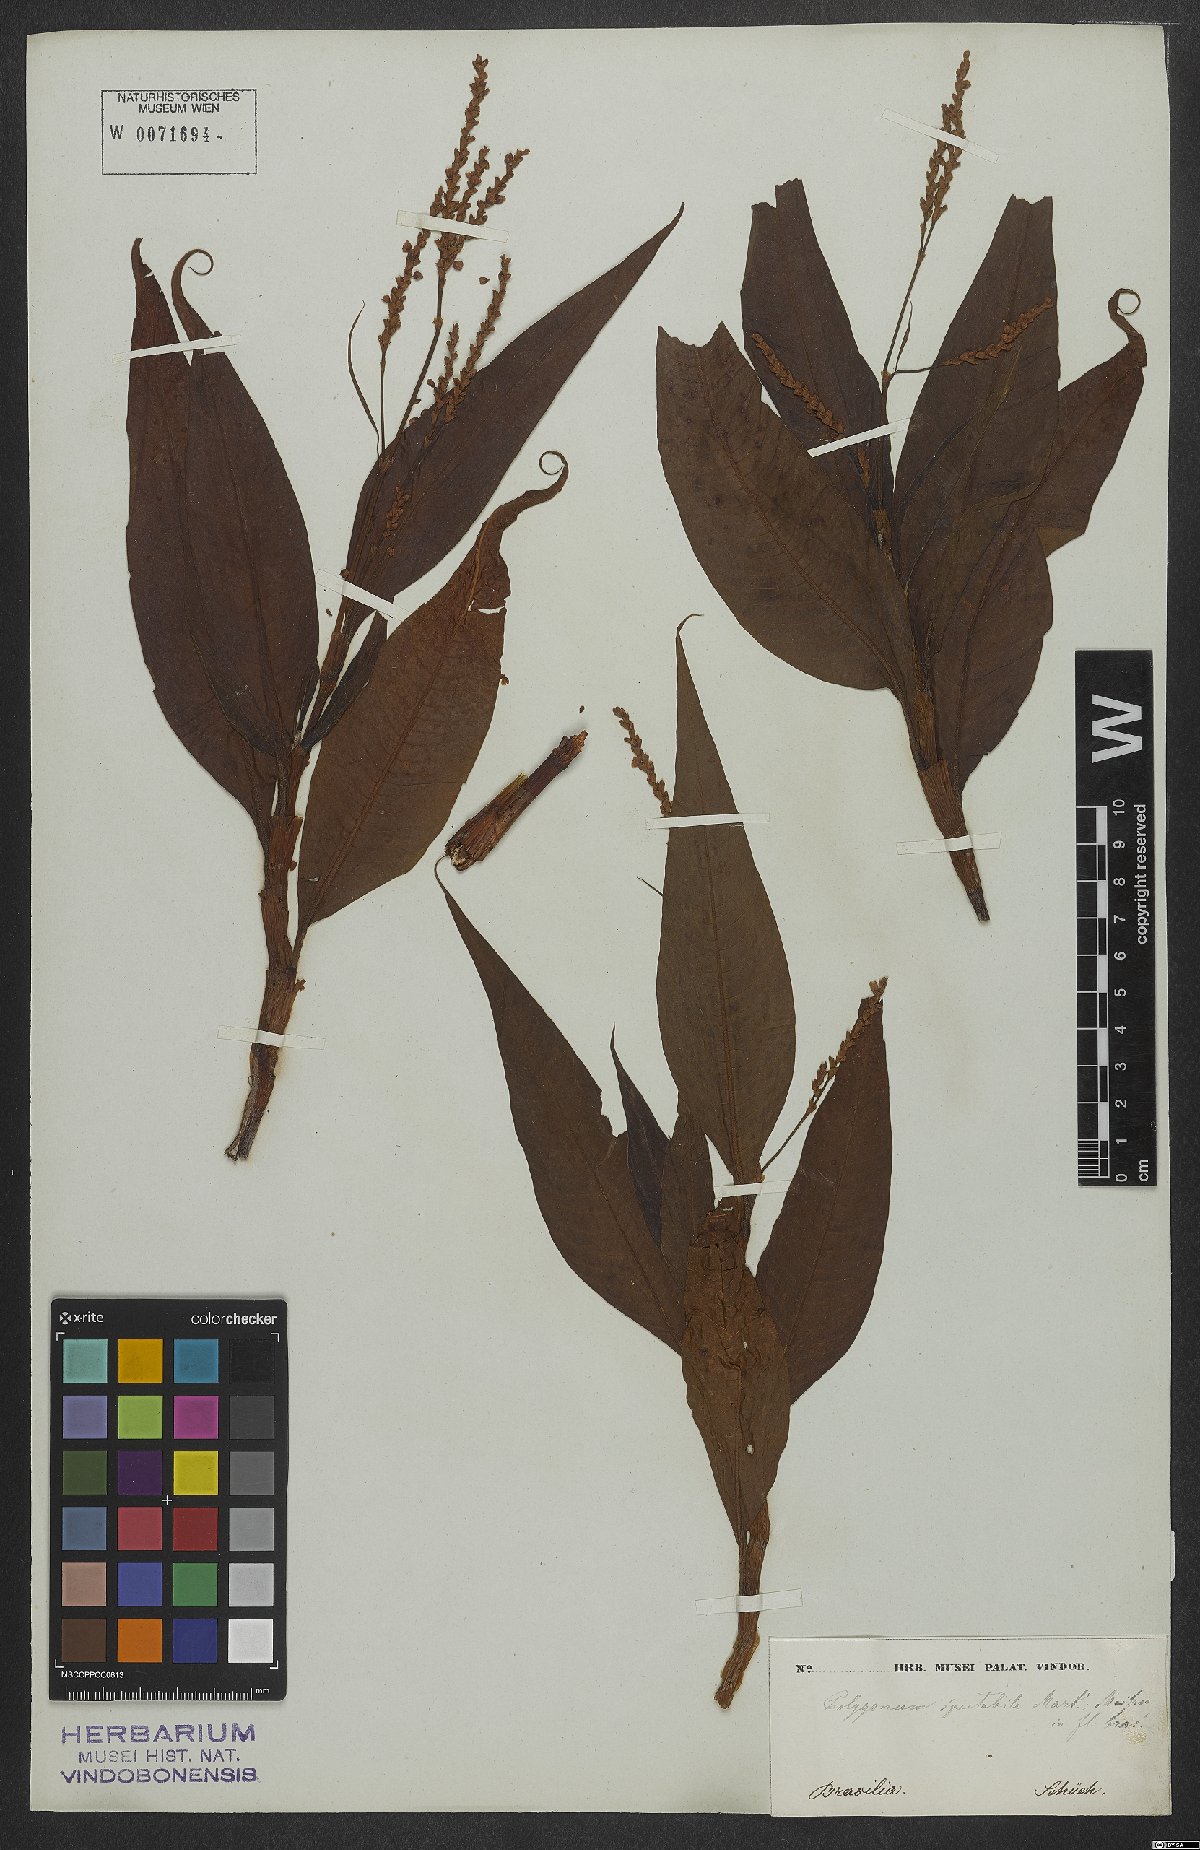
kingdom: Plantae
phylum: Tracheophyta
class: Magnoliopsida
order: Caryophyllales
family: Polygonaceae
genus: Persicaria
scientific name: Persicaria ferruginea
